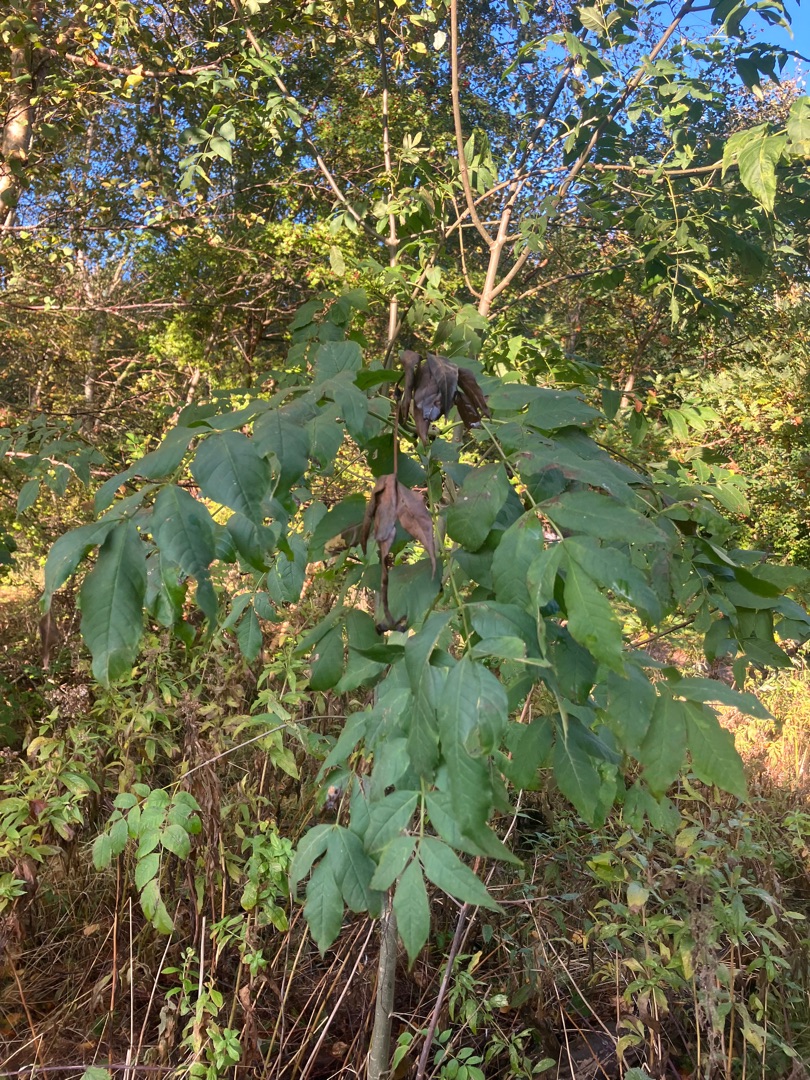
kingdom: Plantae
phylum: Tracheophyta
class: Magnoliopsida
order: Lamiales
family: Oleaceae
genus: Fraxinus
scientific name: Fraxinus excelsior
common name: Ask
